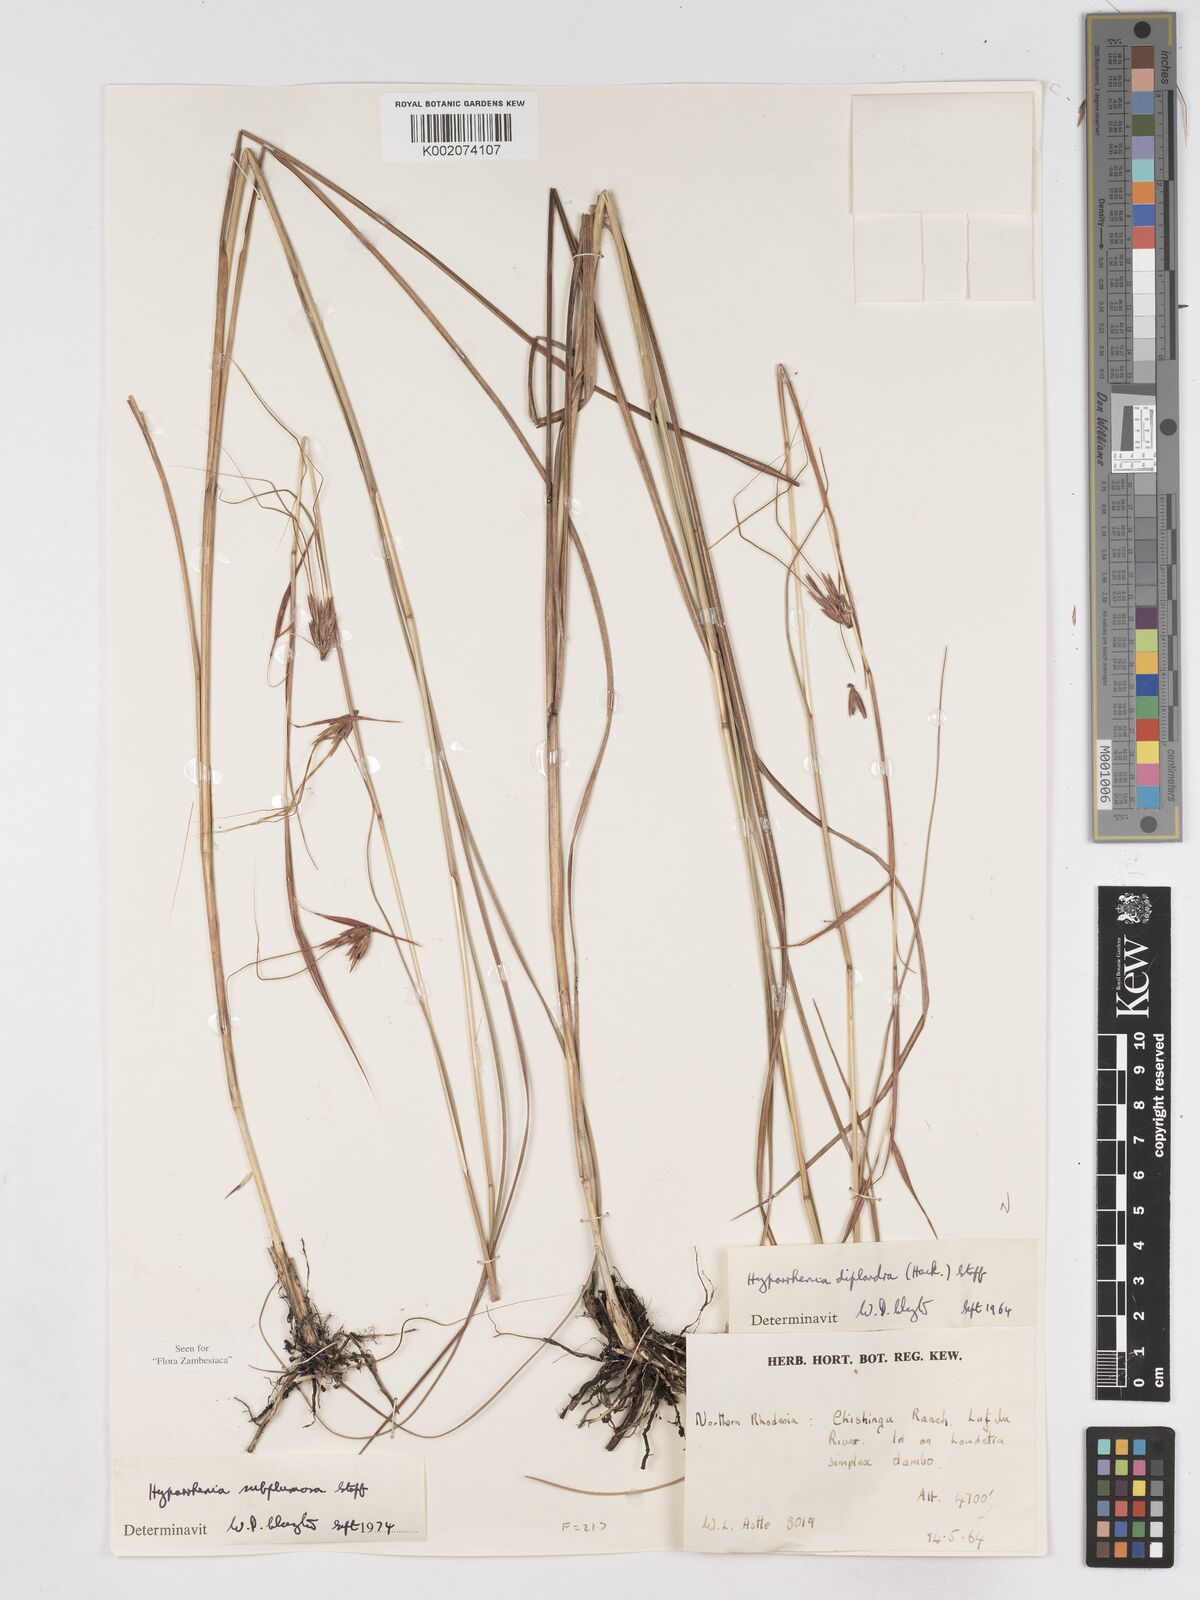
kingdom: Plantae
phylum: Tracheophyta
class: Liliopsida
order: Poales
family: Poaceae
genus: Hyparrhenia
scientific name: Hyparrhenia subplumosa
